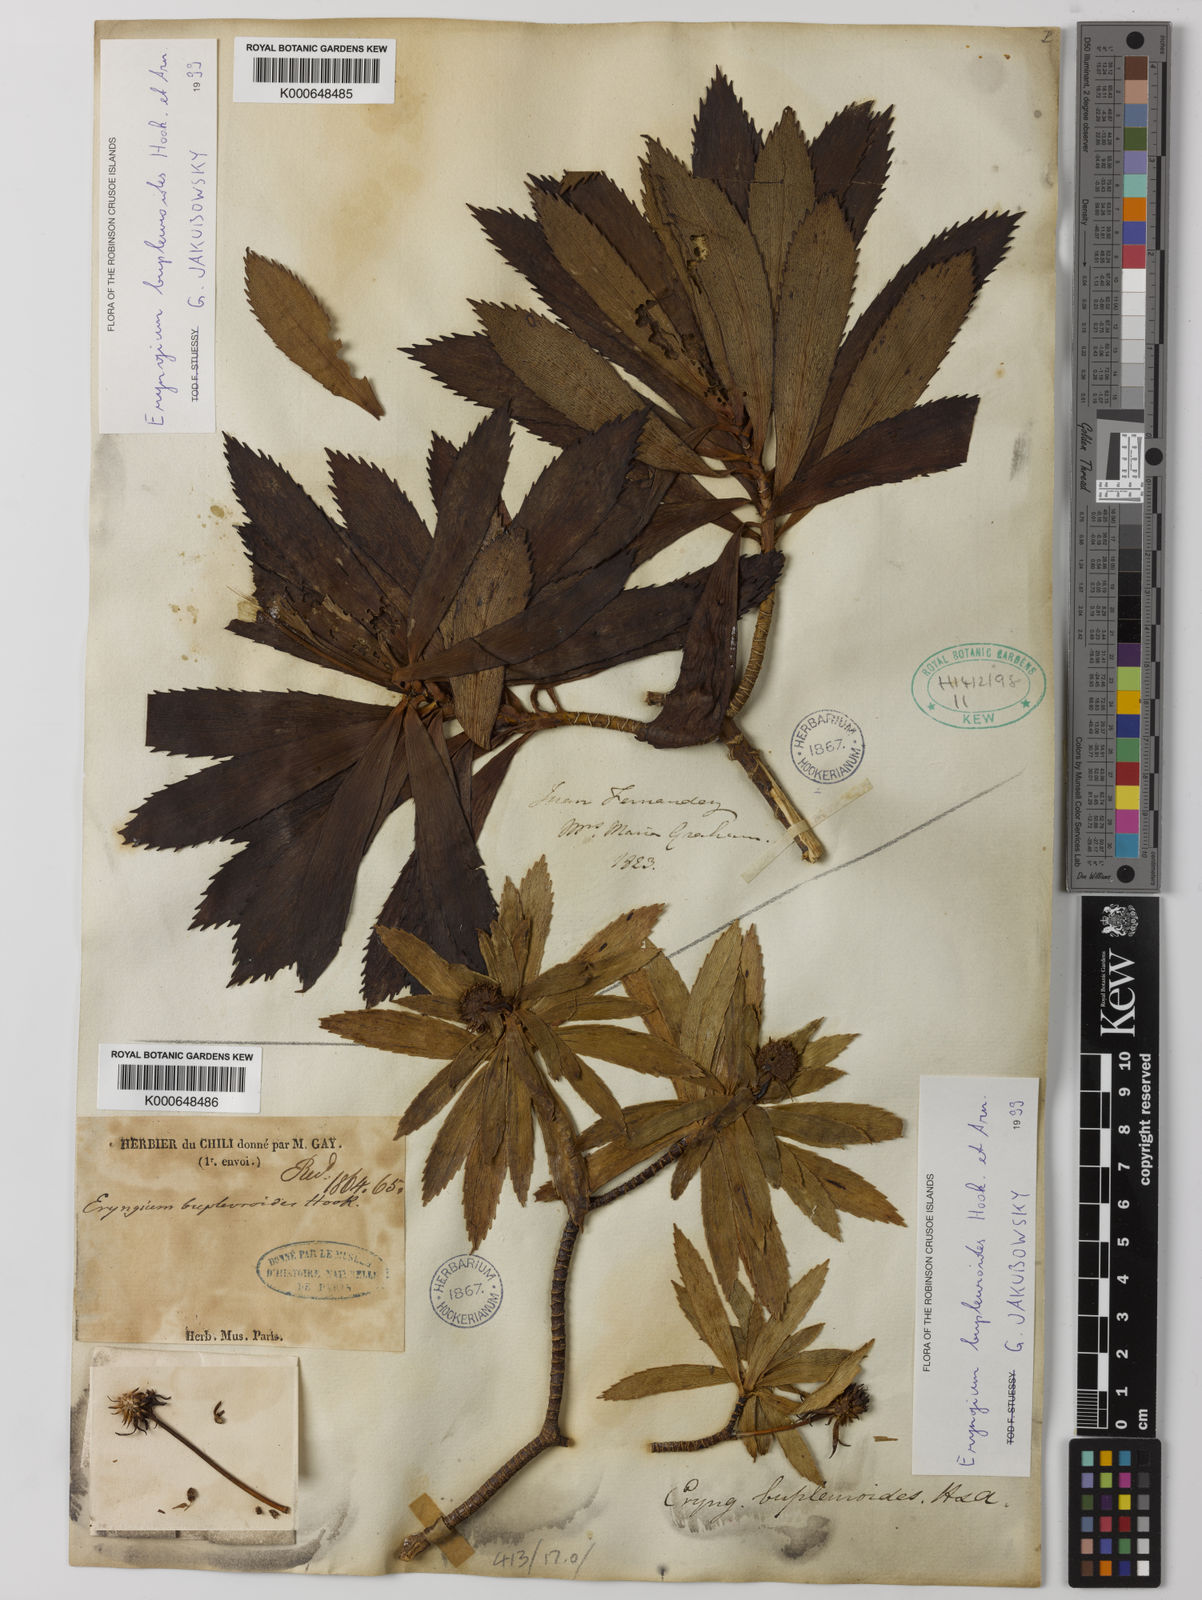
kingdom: Plantae
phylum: Tracheophyta
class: Magnoliopsida
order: Apiales
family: Apiaceae
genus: Eryngium
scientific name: Eryngium bupleuroides
